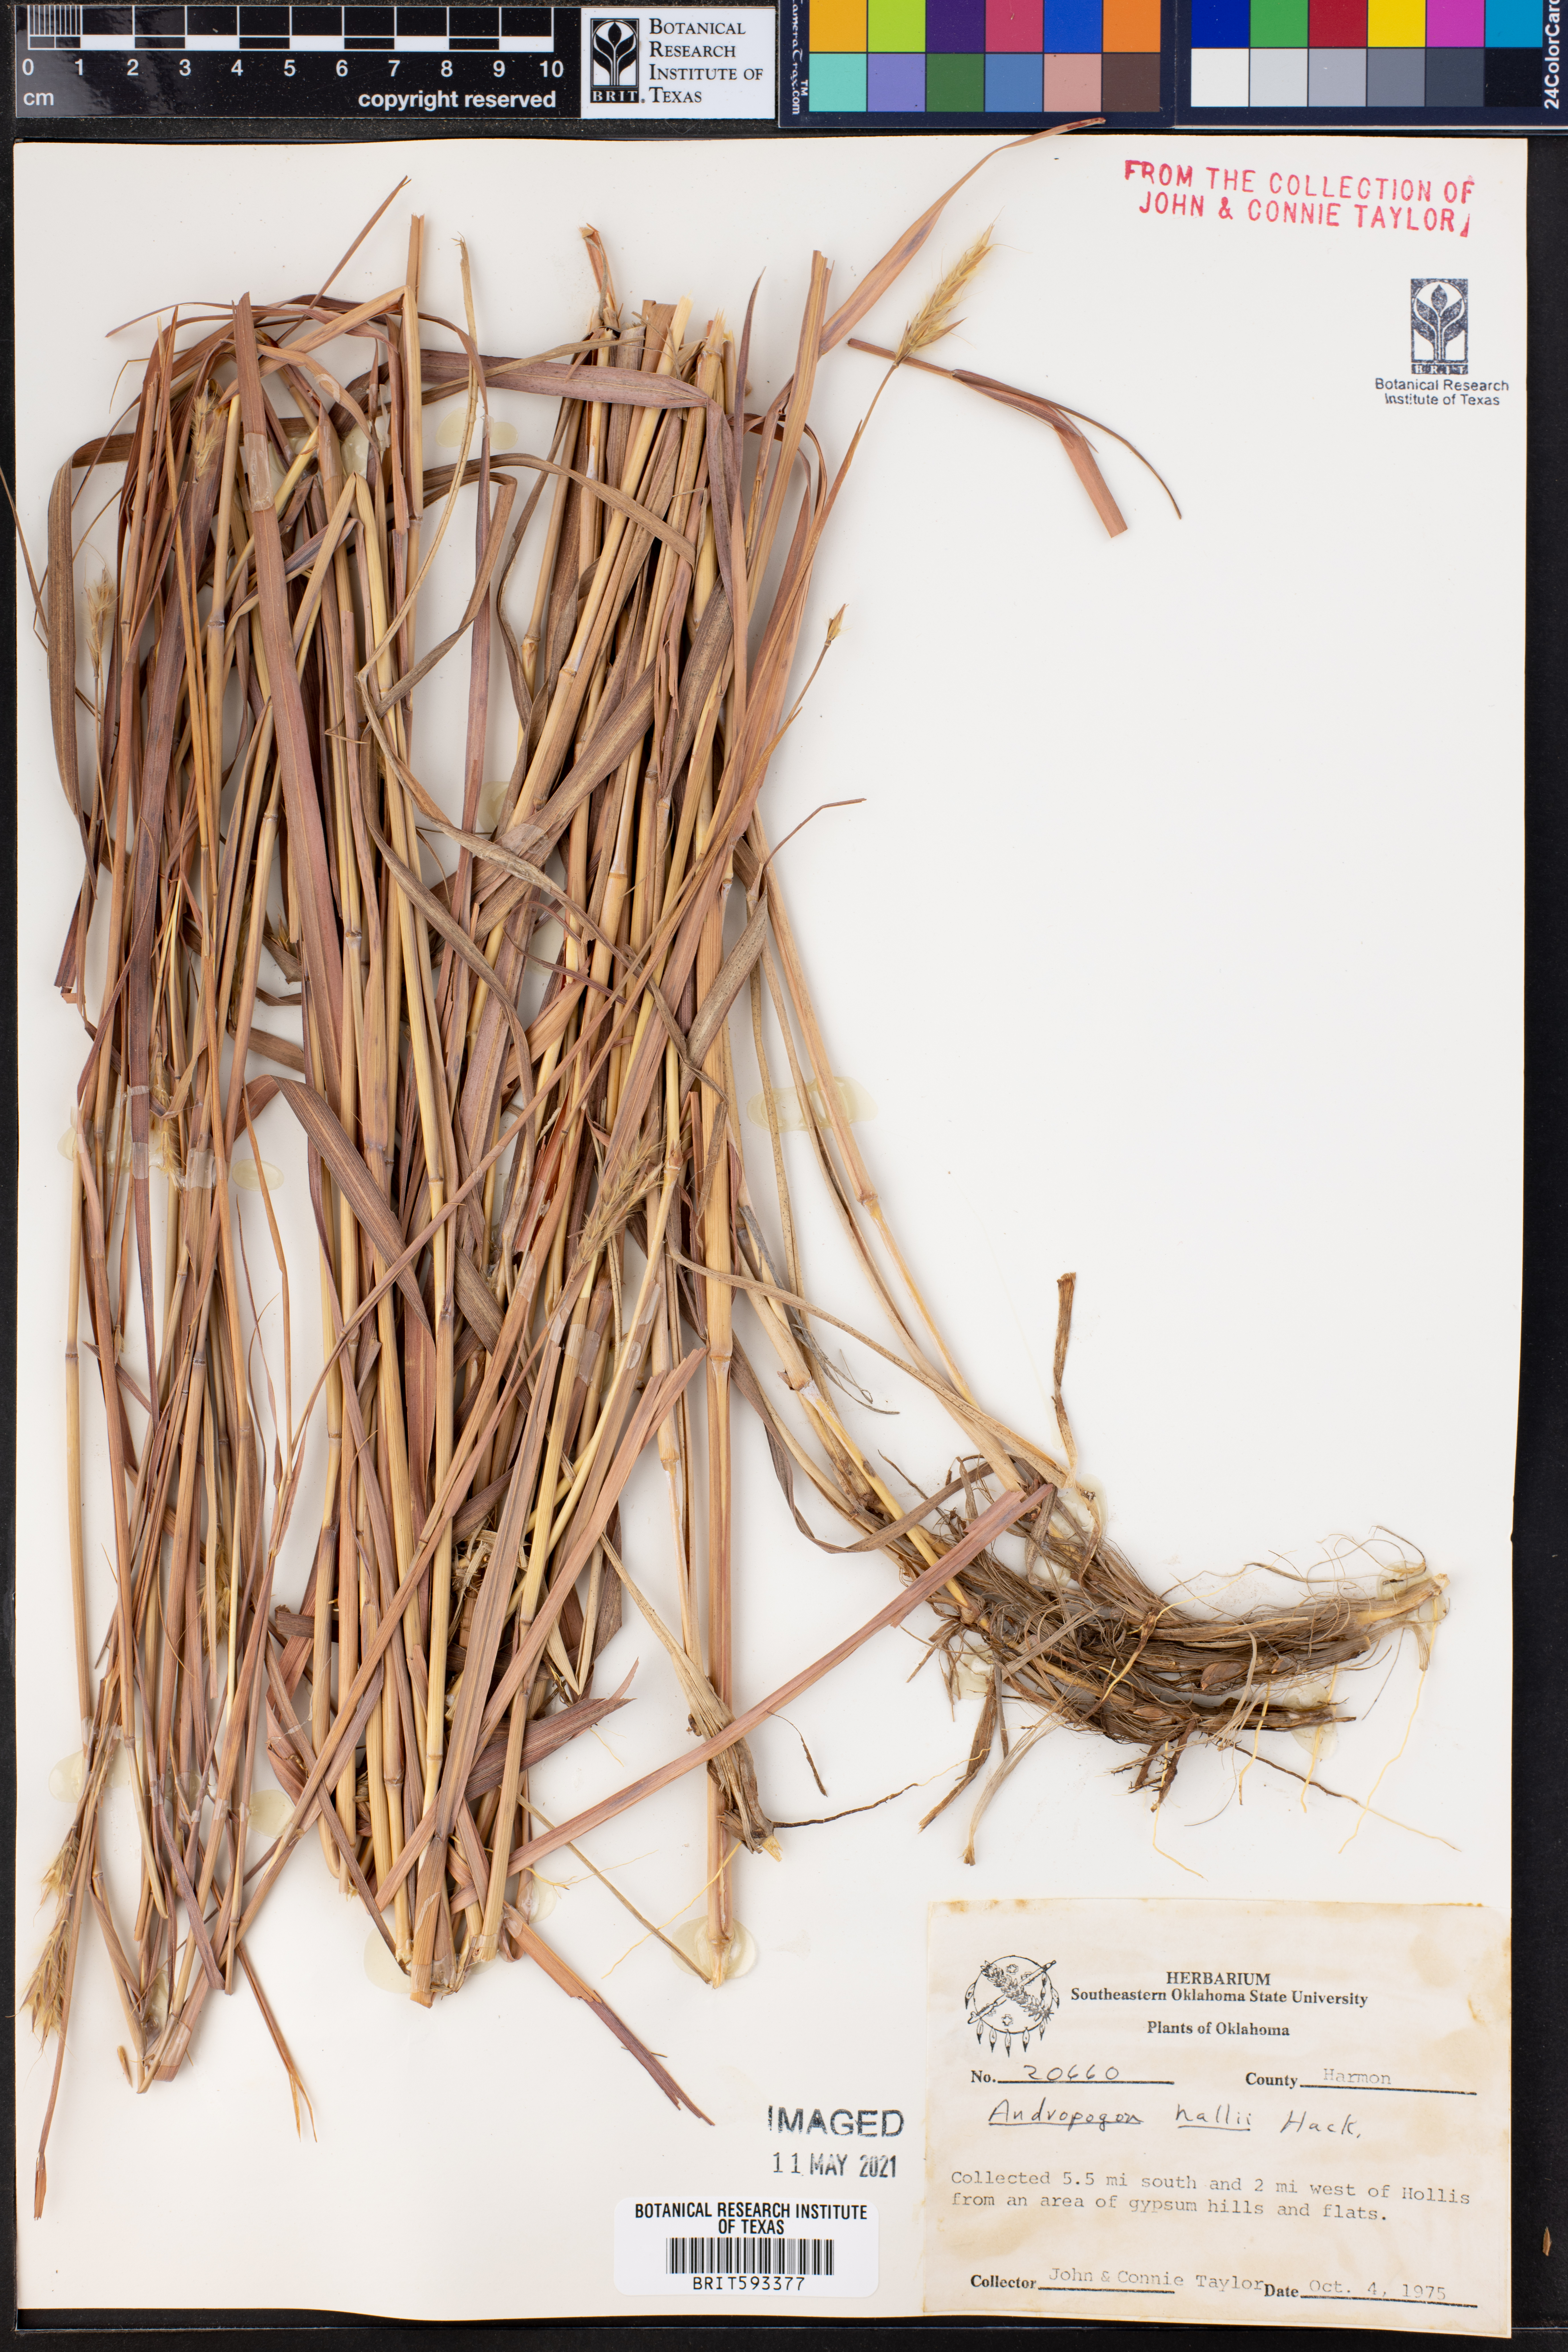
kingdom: Plantae
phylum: Tracheophyta
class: Liliopsida
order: Poales
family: Poaceae
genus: Andropogon
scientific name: Andropogon hallii
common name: Sand bluestem
